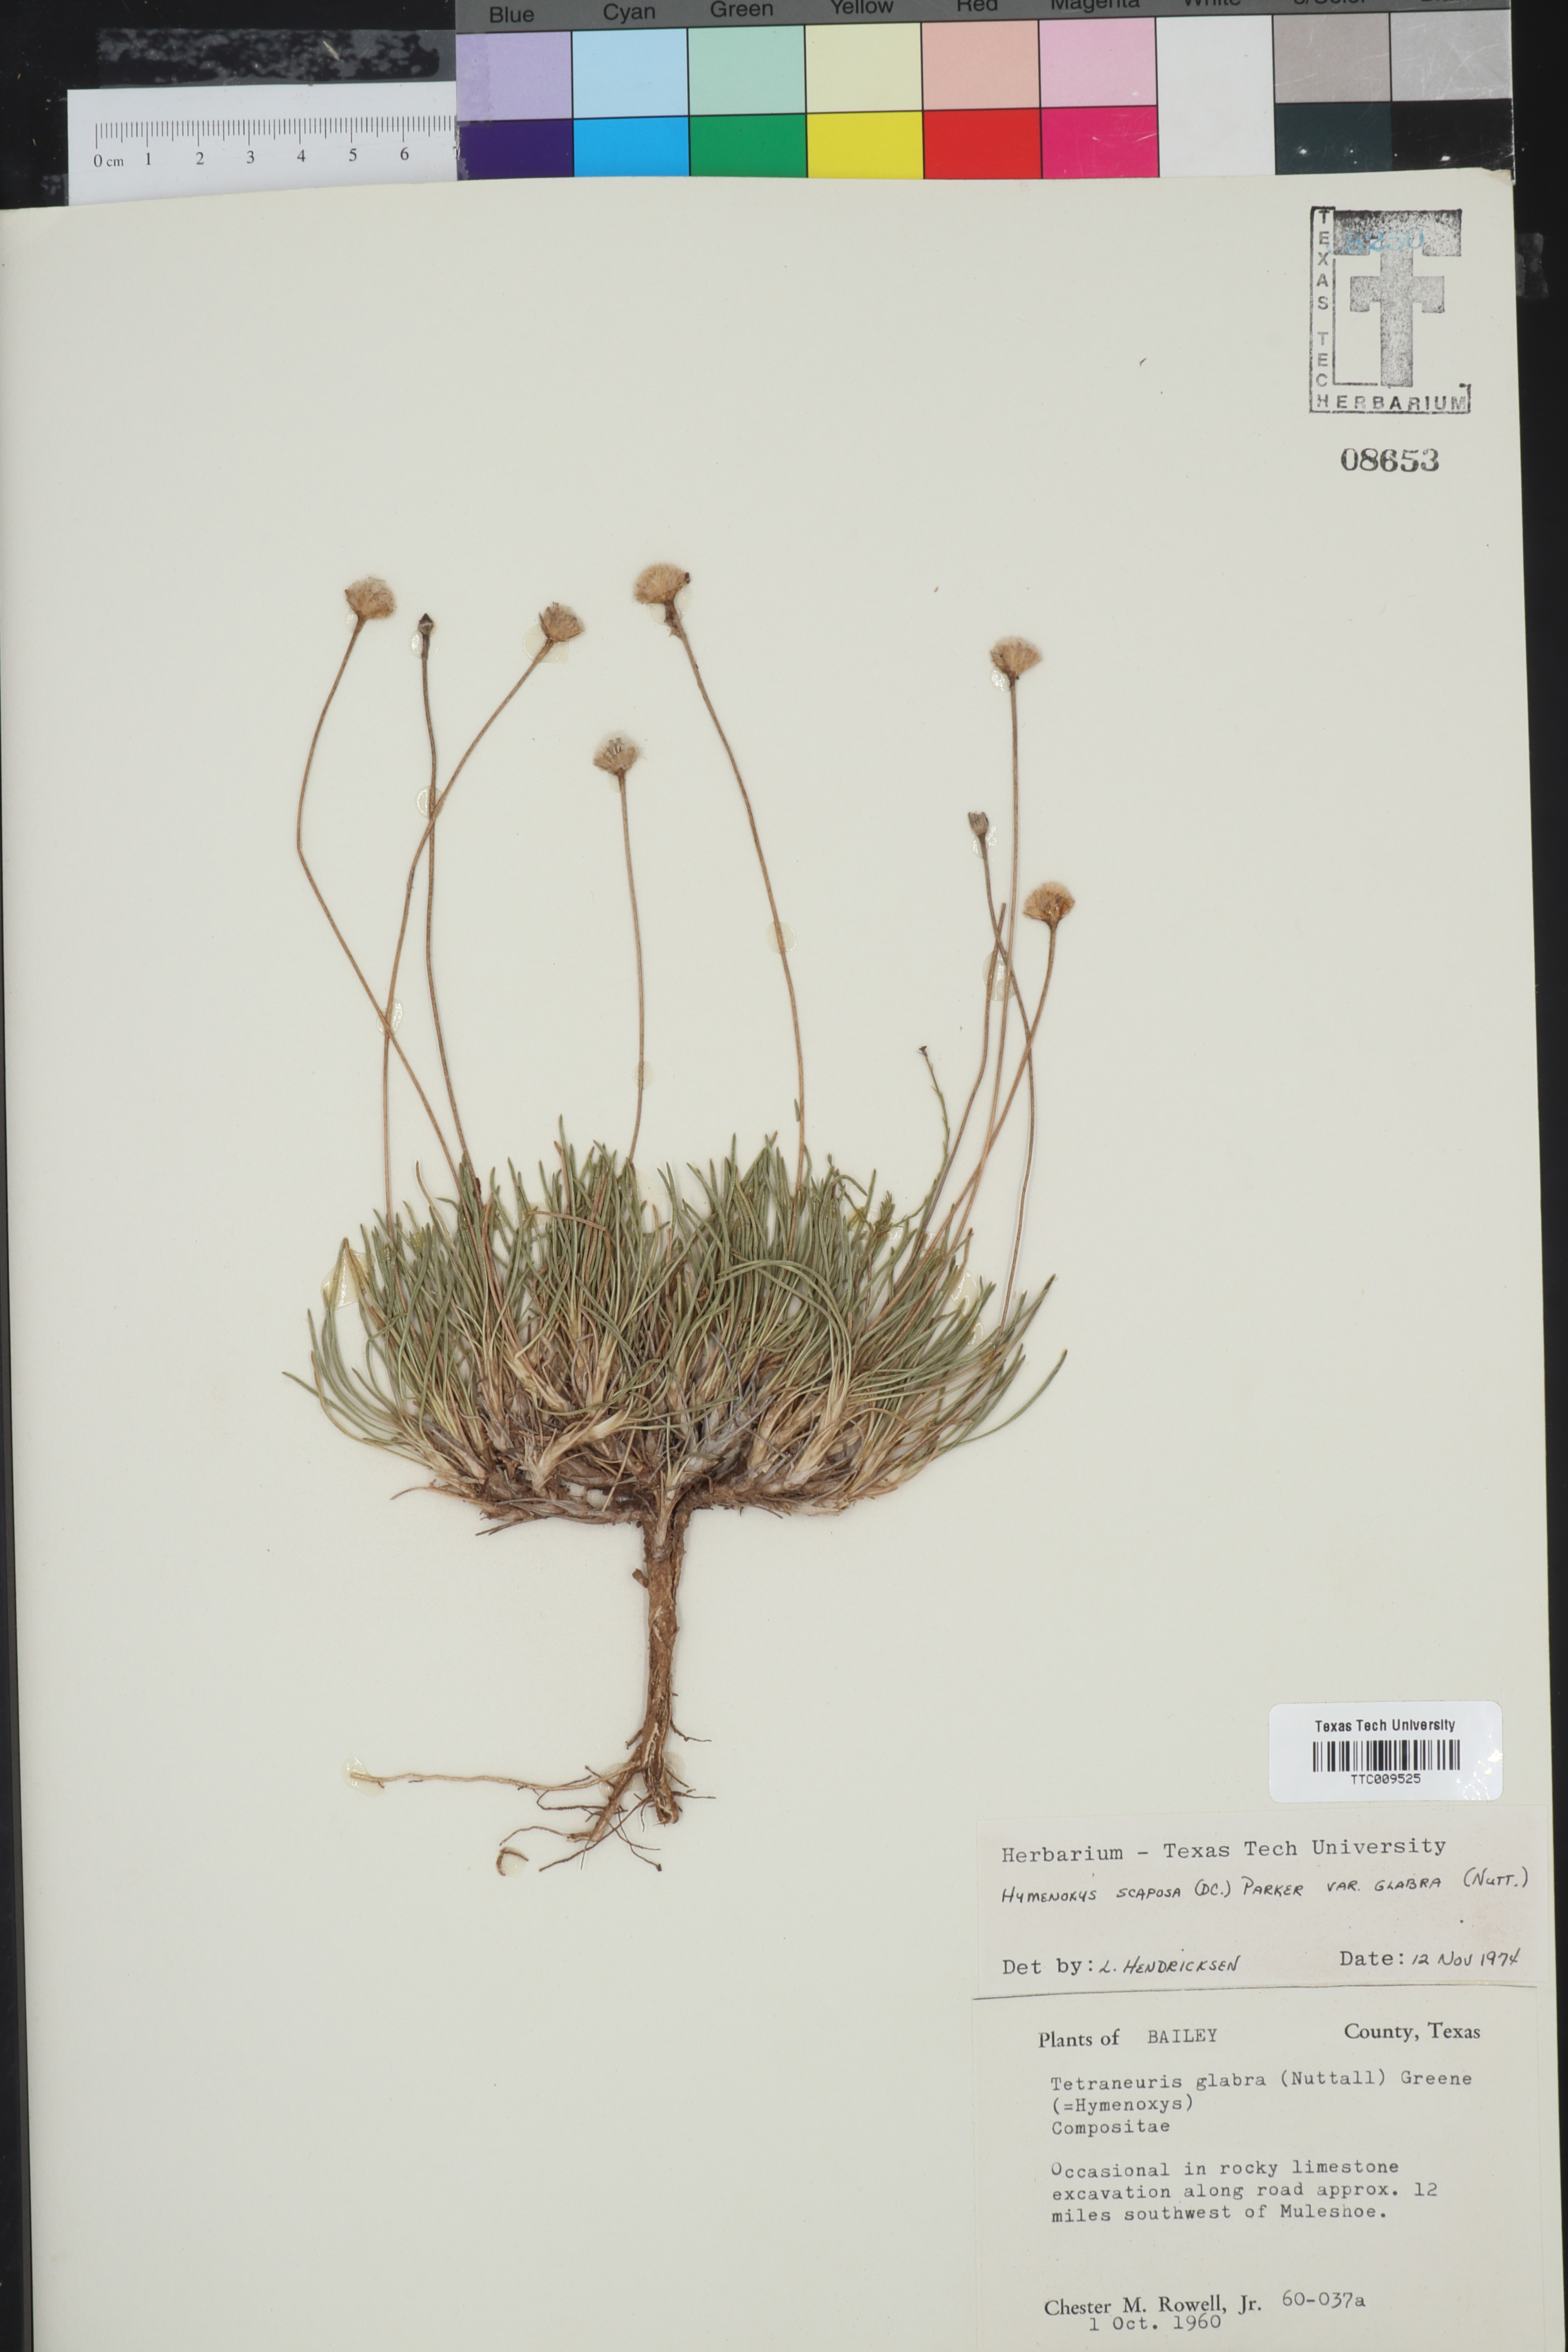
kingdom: Plantae
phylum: Tracheophyta
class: Magnoliopsida
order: Asterales
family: Asteraceae
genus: Tetraneuris
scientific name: Tetraneuris scaposa
